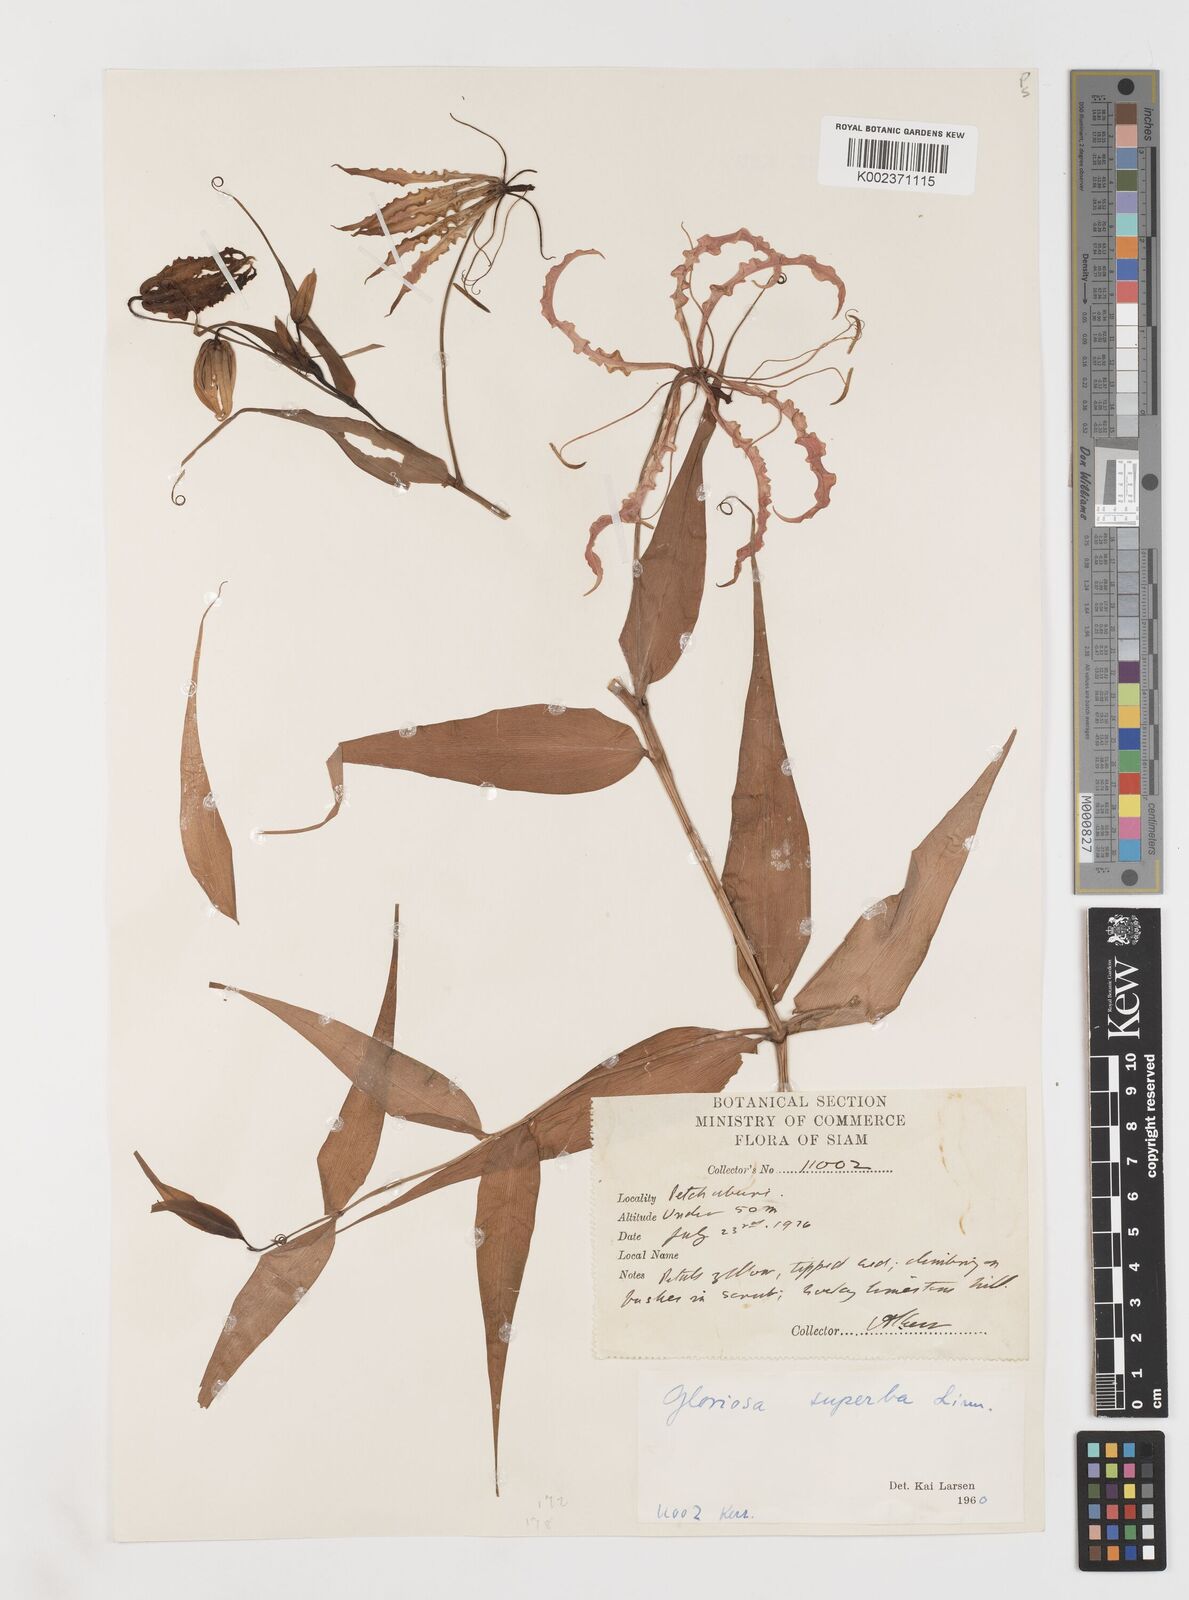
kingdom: Plantae
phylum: Tracheophyta
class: Liliopsida
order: Liliales
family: Colchicaceae
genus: Gloriosa
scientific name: Gloriosa superba
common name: Flame lily
